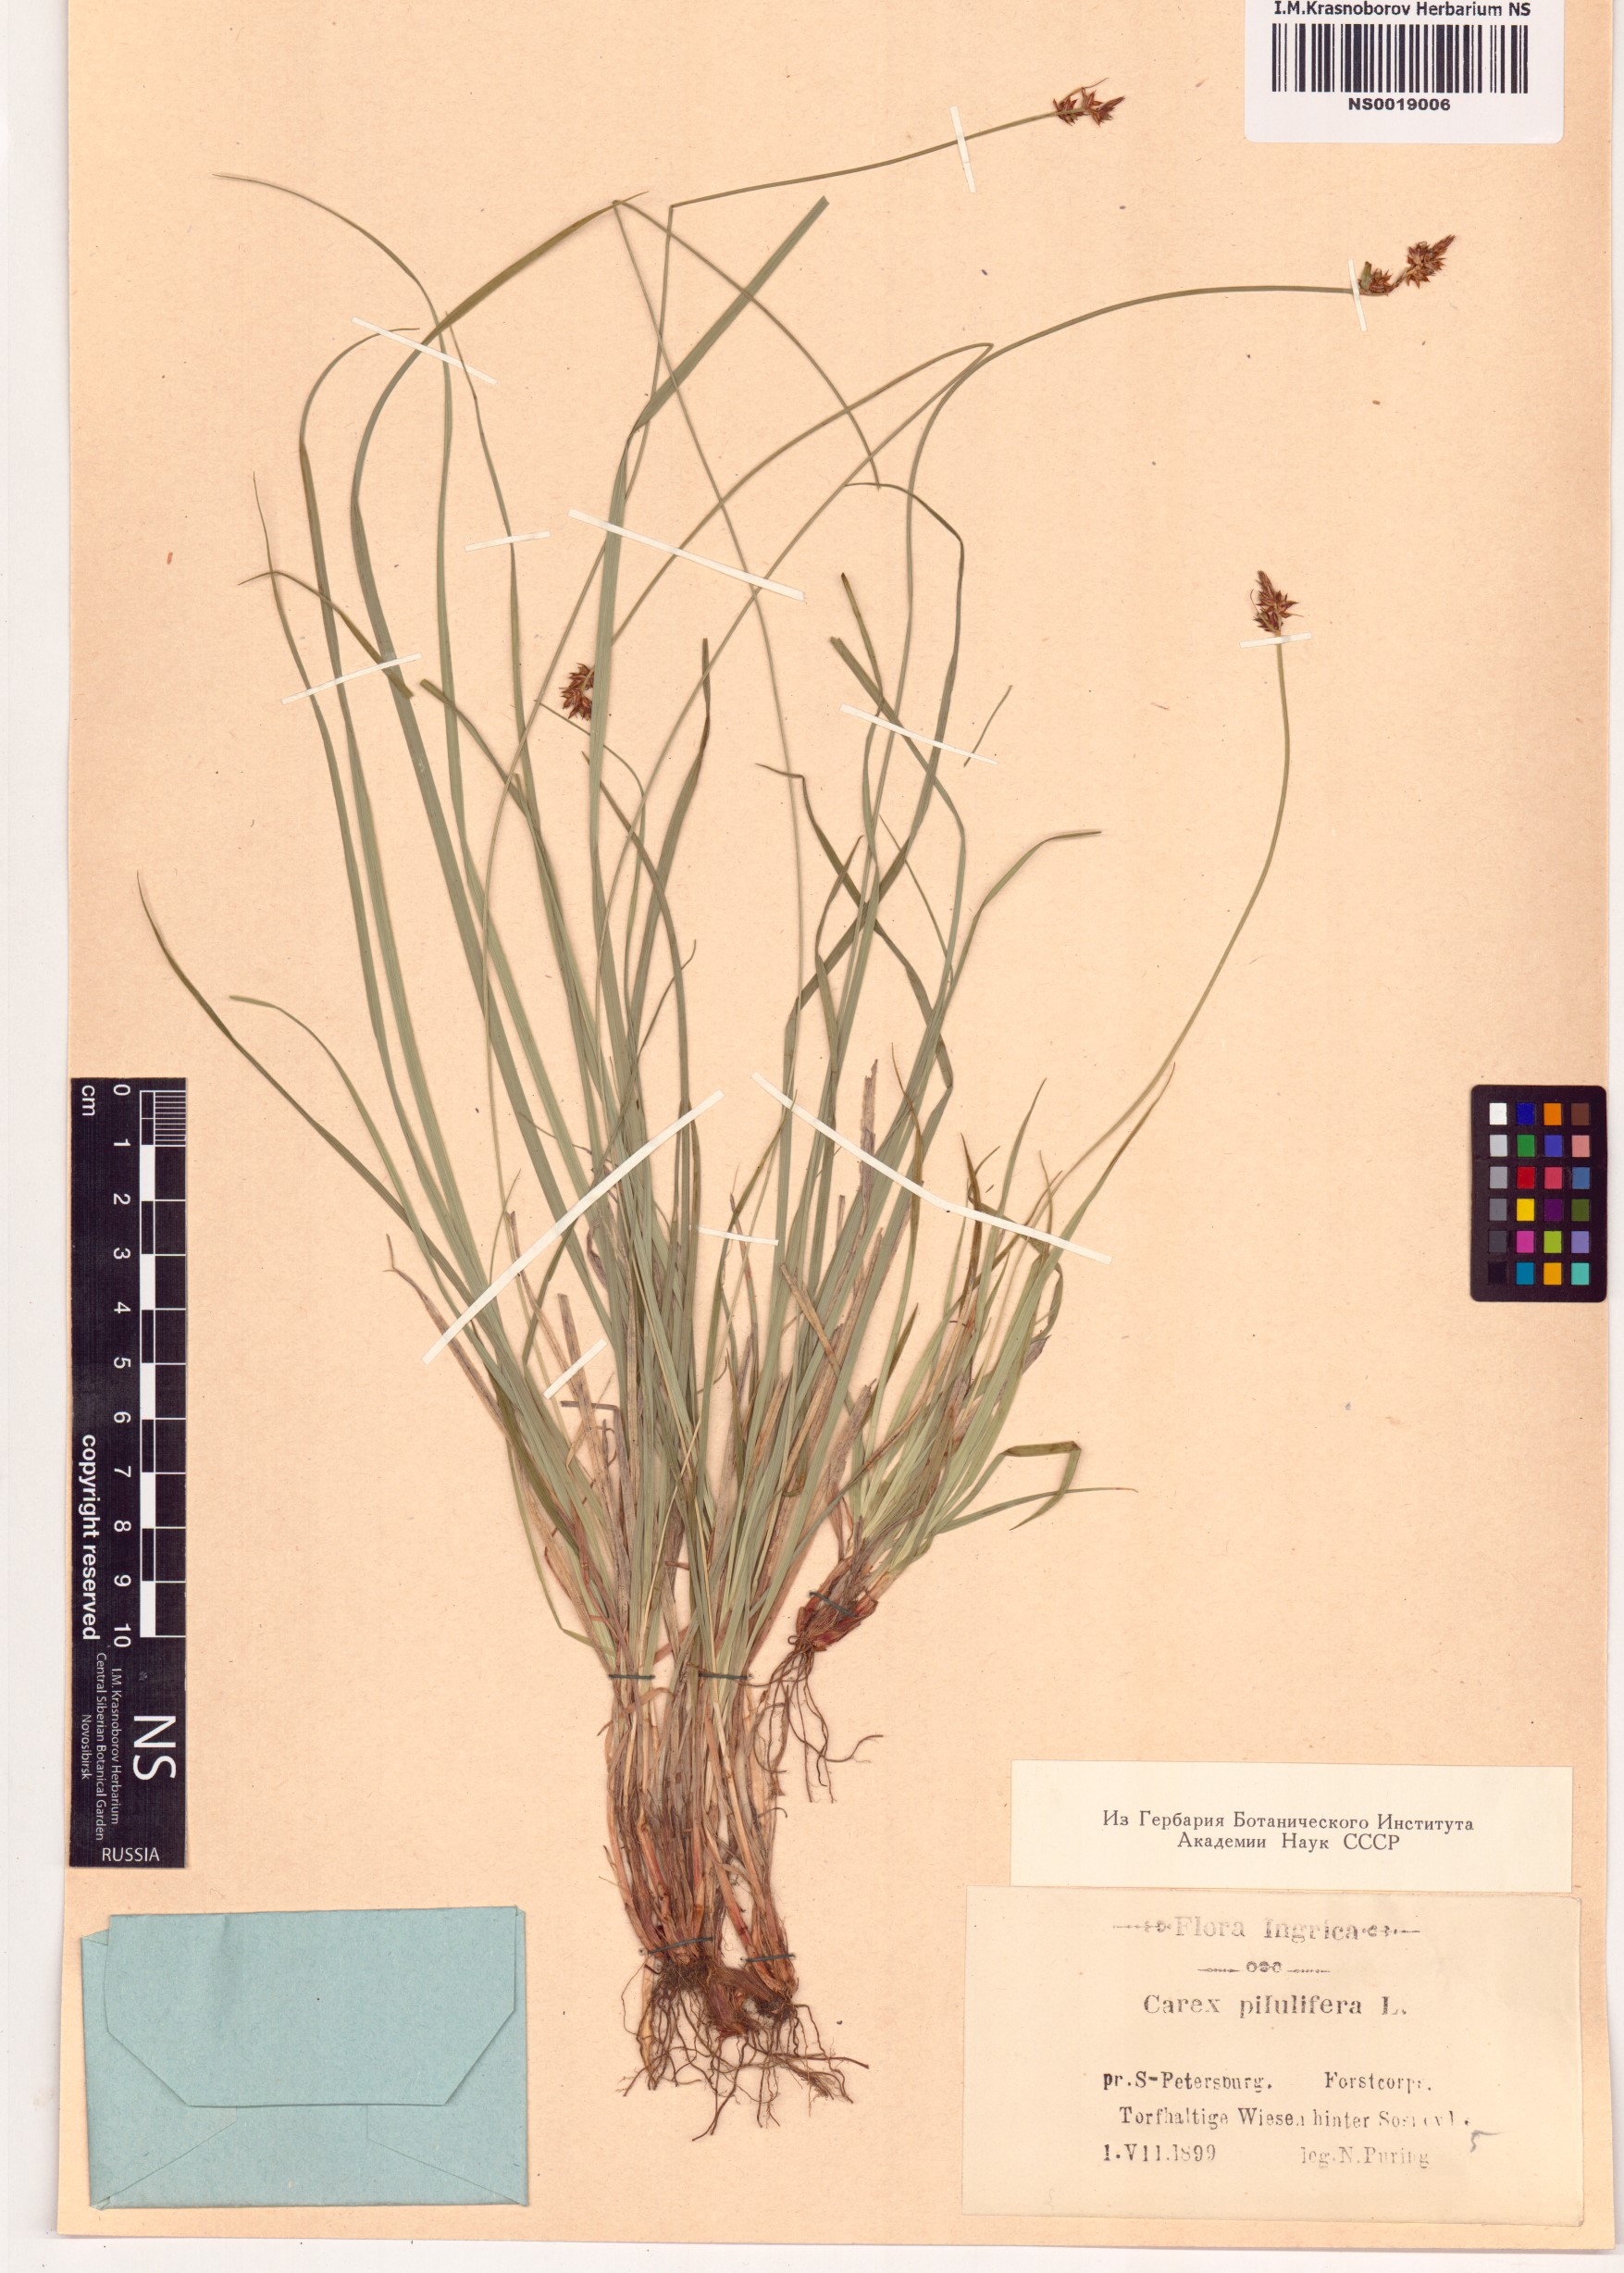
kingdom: Plantae
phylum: Tracheophyta
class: Liliopsida
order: Poales
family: Cyperaceae
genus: Carex
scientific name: Carex pilulifera
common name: Pill sedge
